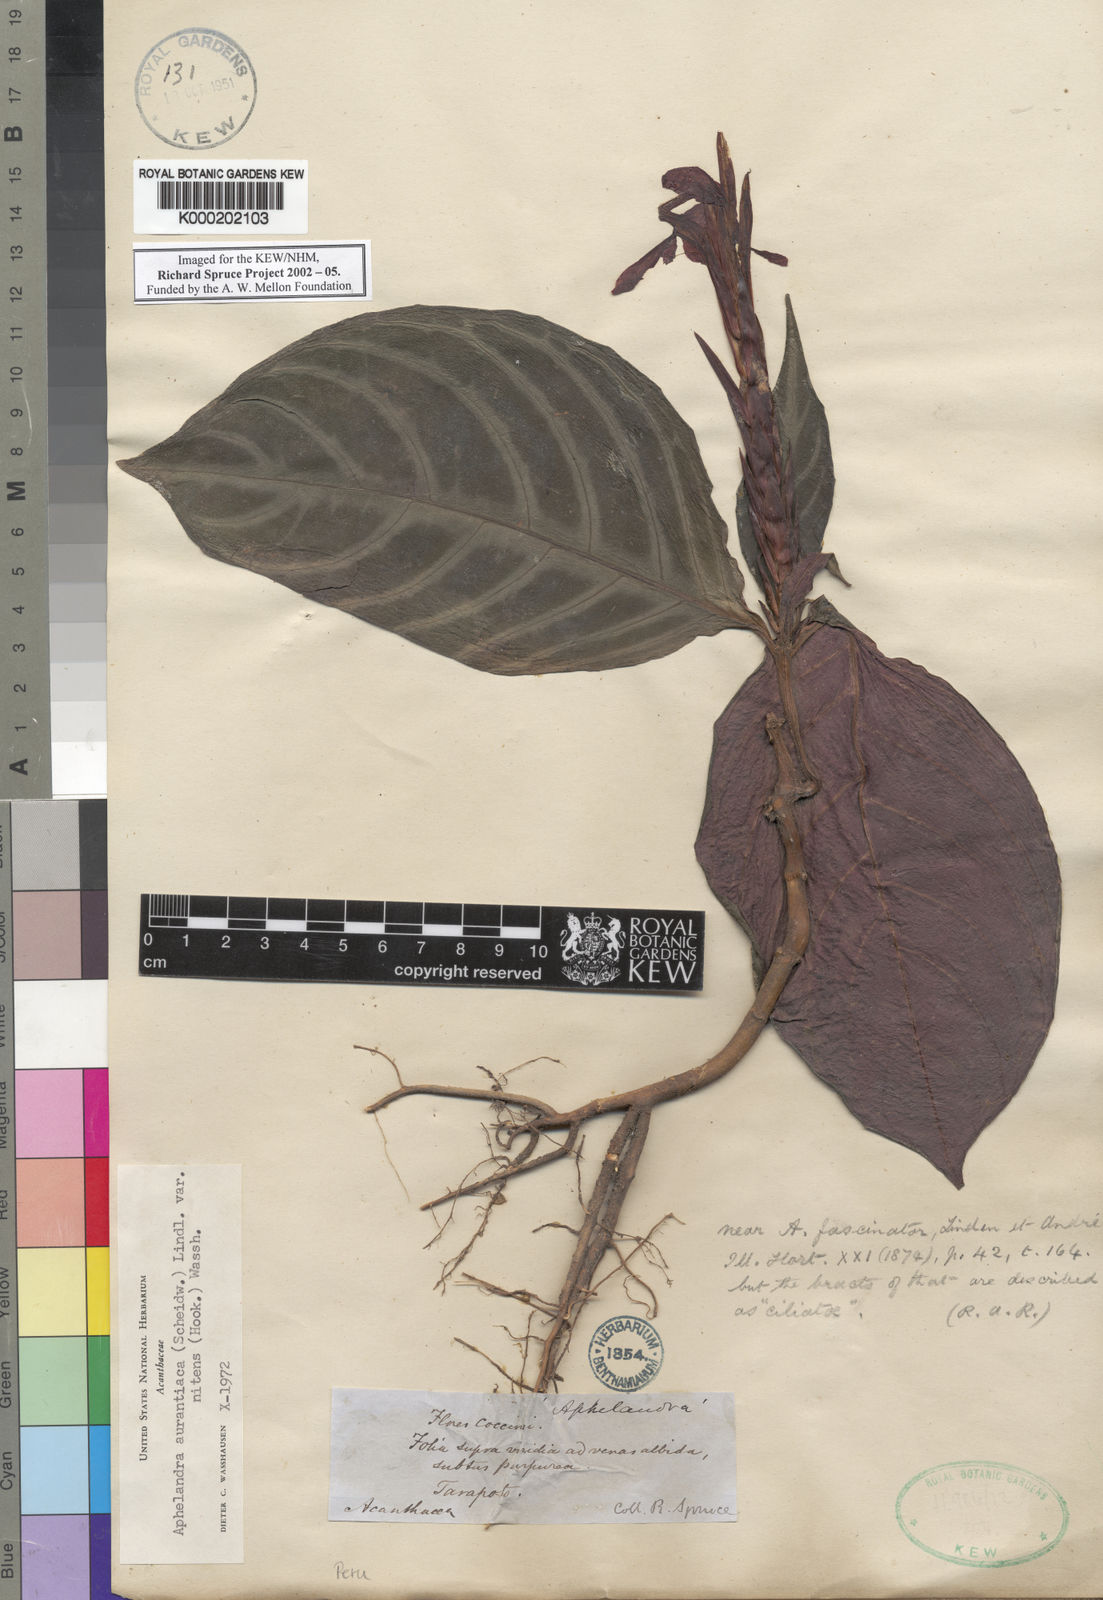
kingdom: Plantae
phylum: Tracheophyta
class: Magnoliopsida
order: Lamiales
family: Acanthaceae
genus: Aphelandra
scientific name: Aphelandra aurantiaca
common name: Fiery spike
